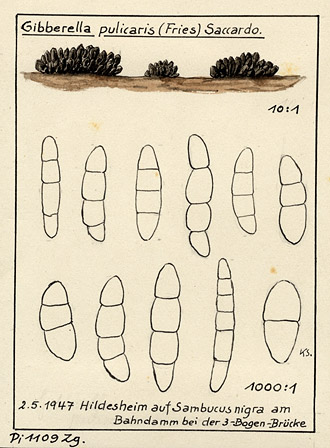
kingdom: Plantae
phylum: Tracheophyta
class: Magnoliopsida
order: Dipsacales
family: Viburnaceae
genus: Sambucus
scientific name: Sambucus nigra
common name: Elder
